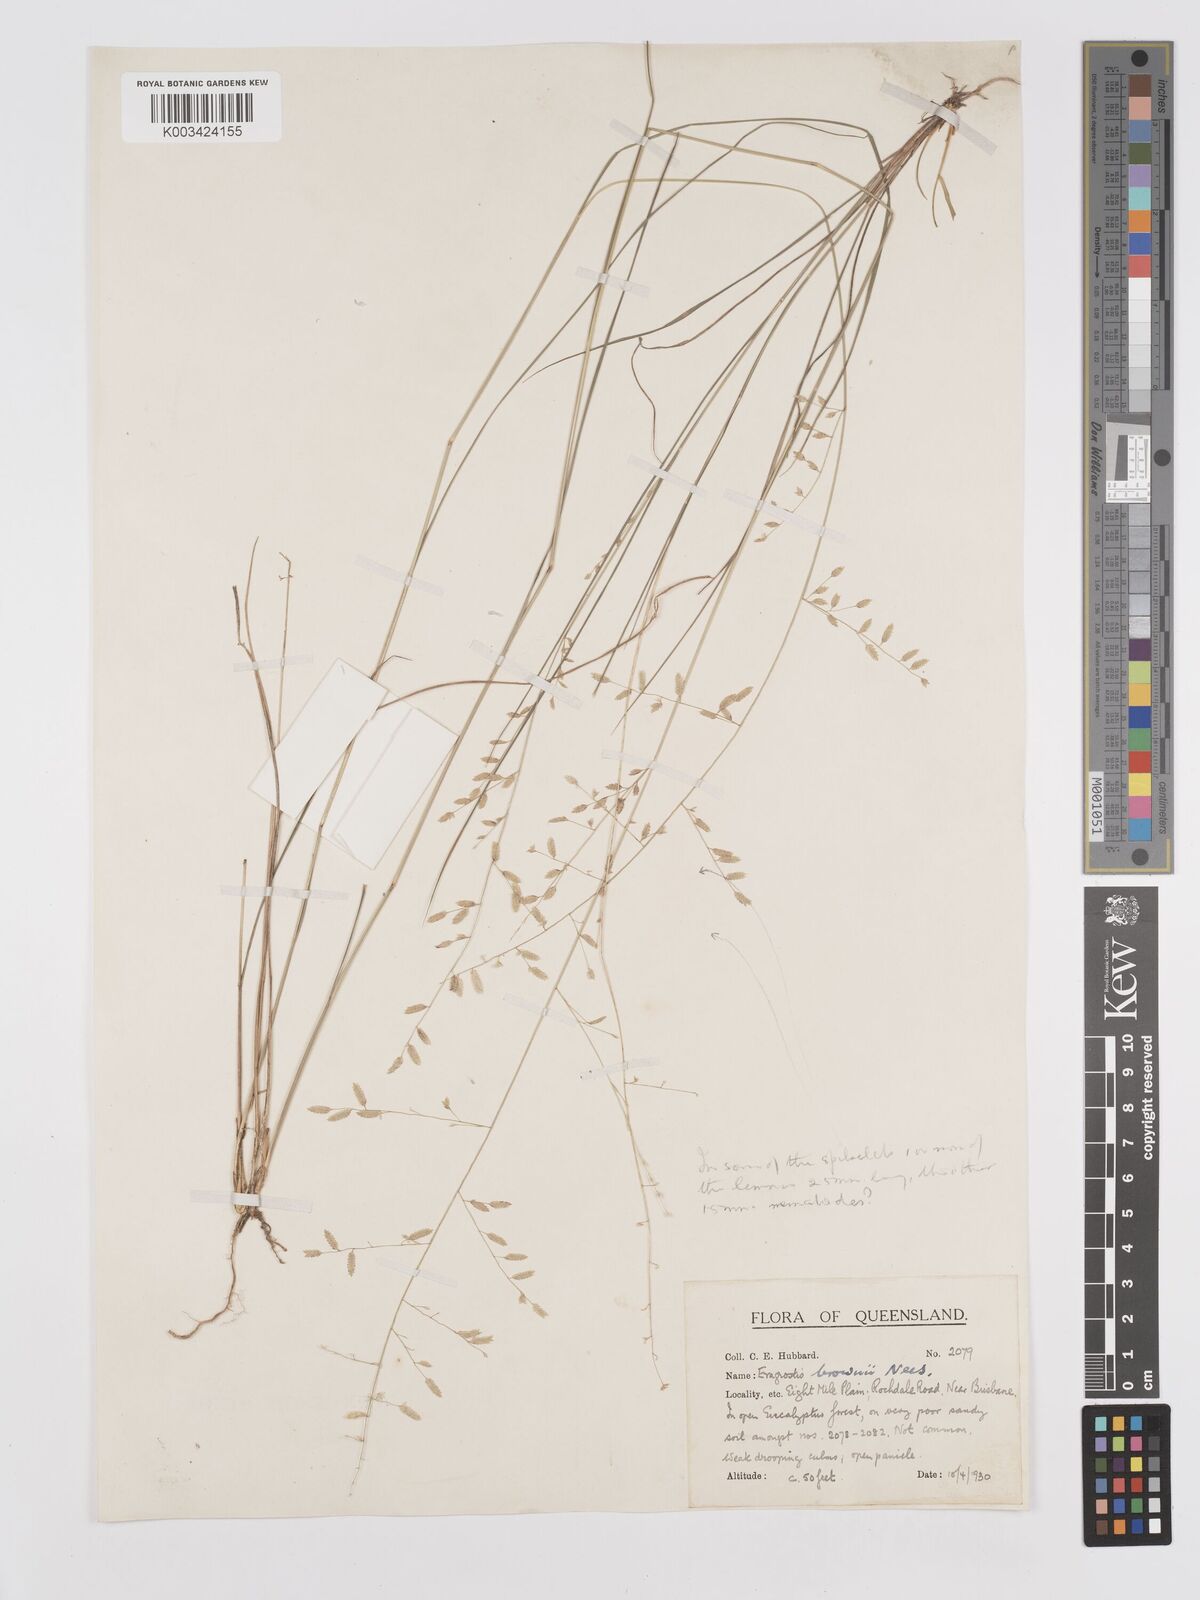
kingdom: Plantae
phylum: Tracheophyta
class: Liliopsida
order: Poales
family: Poaceae
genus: Eragrostis
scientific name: Eragrostis brownii
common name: Lovegrass
